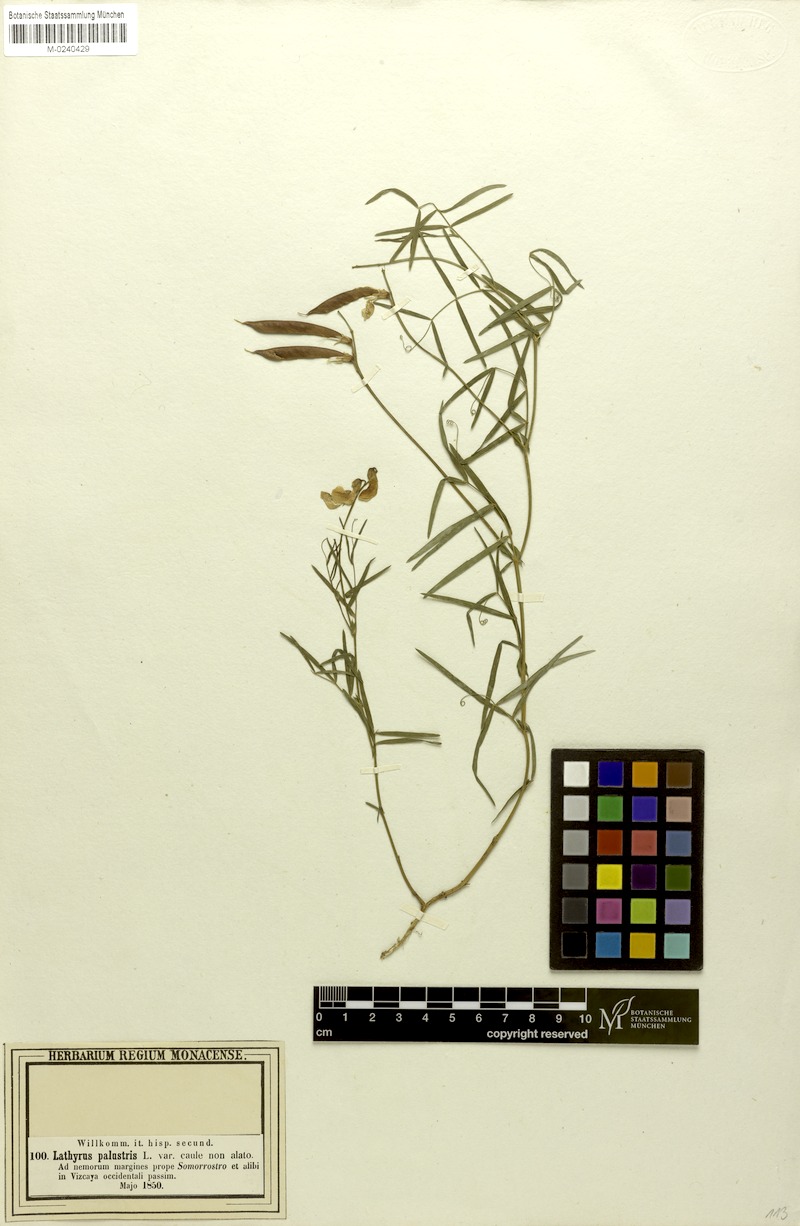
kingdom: Plantae
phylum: Tracheophyta
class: Magnoliopsida
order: Fabales
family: Fabaceae
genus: Lathyrus
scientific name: Lathyrus graminifolius
